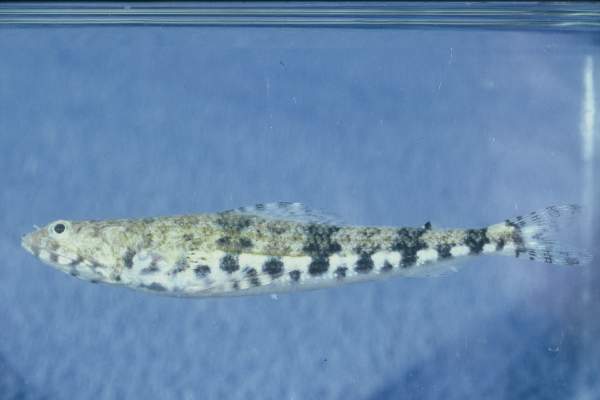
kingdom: Animalia
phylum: Chordata
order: Aulopiformes
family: Synodontidae
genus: Synodus
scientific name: Synodus variegatus
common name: Variegated lizardfish
